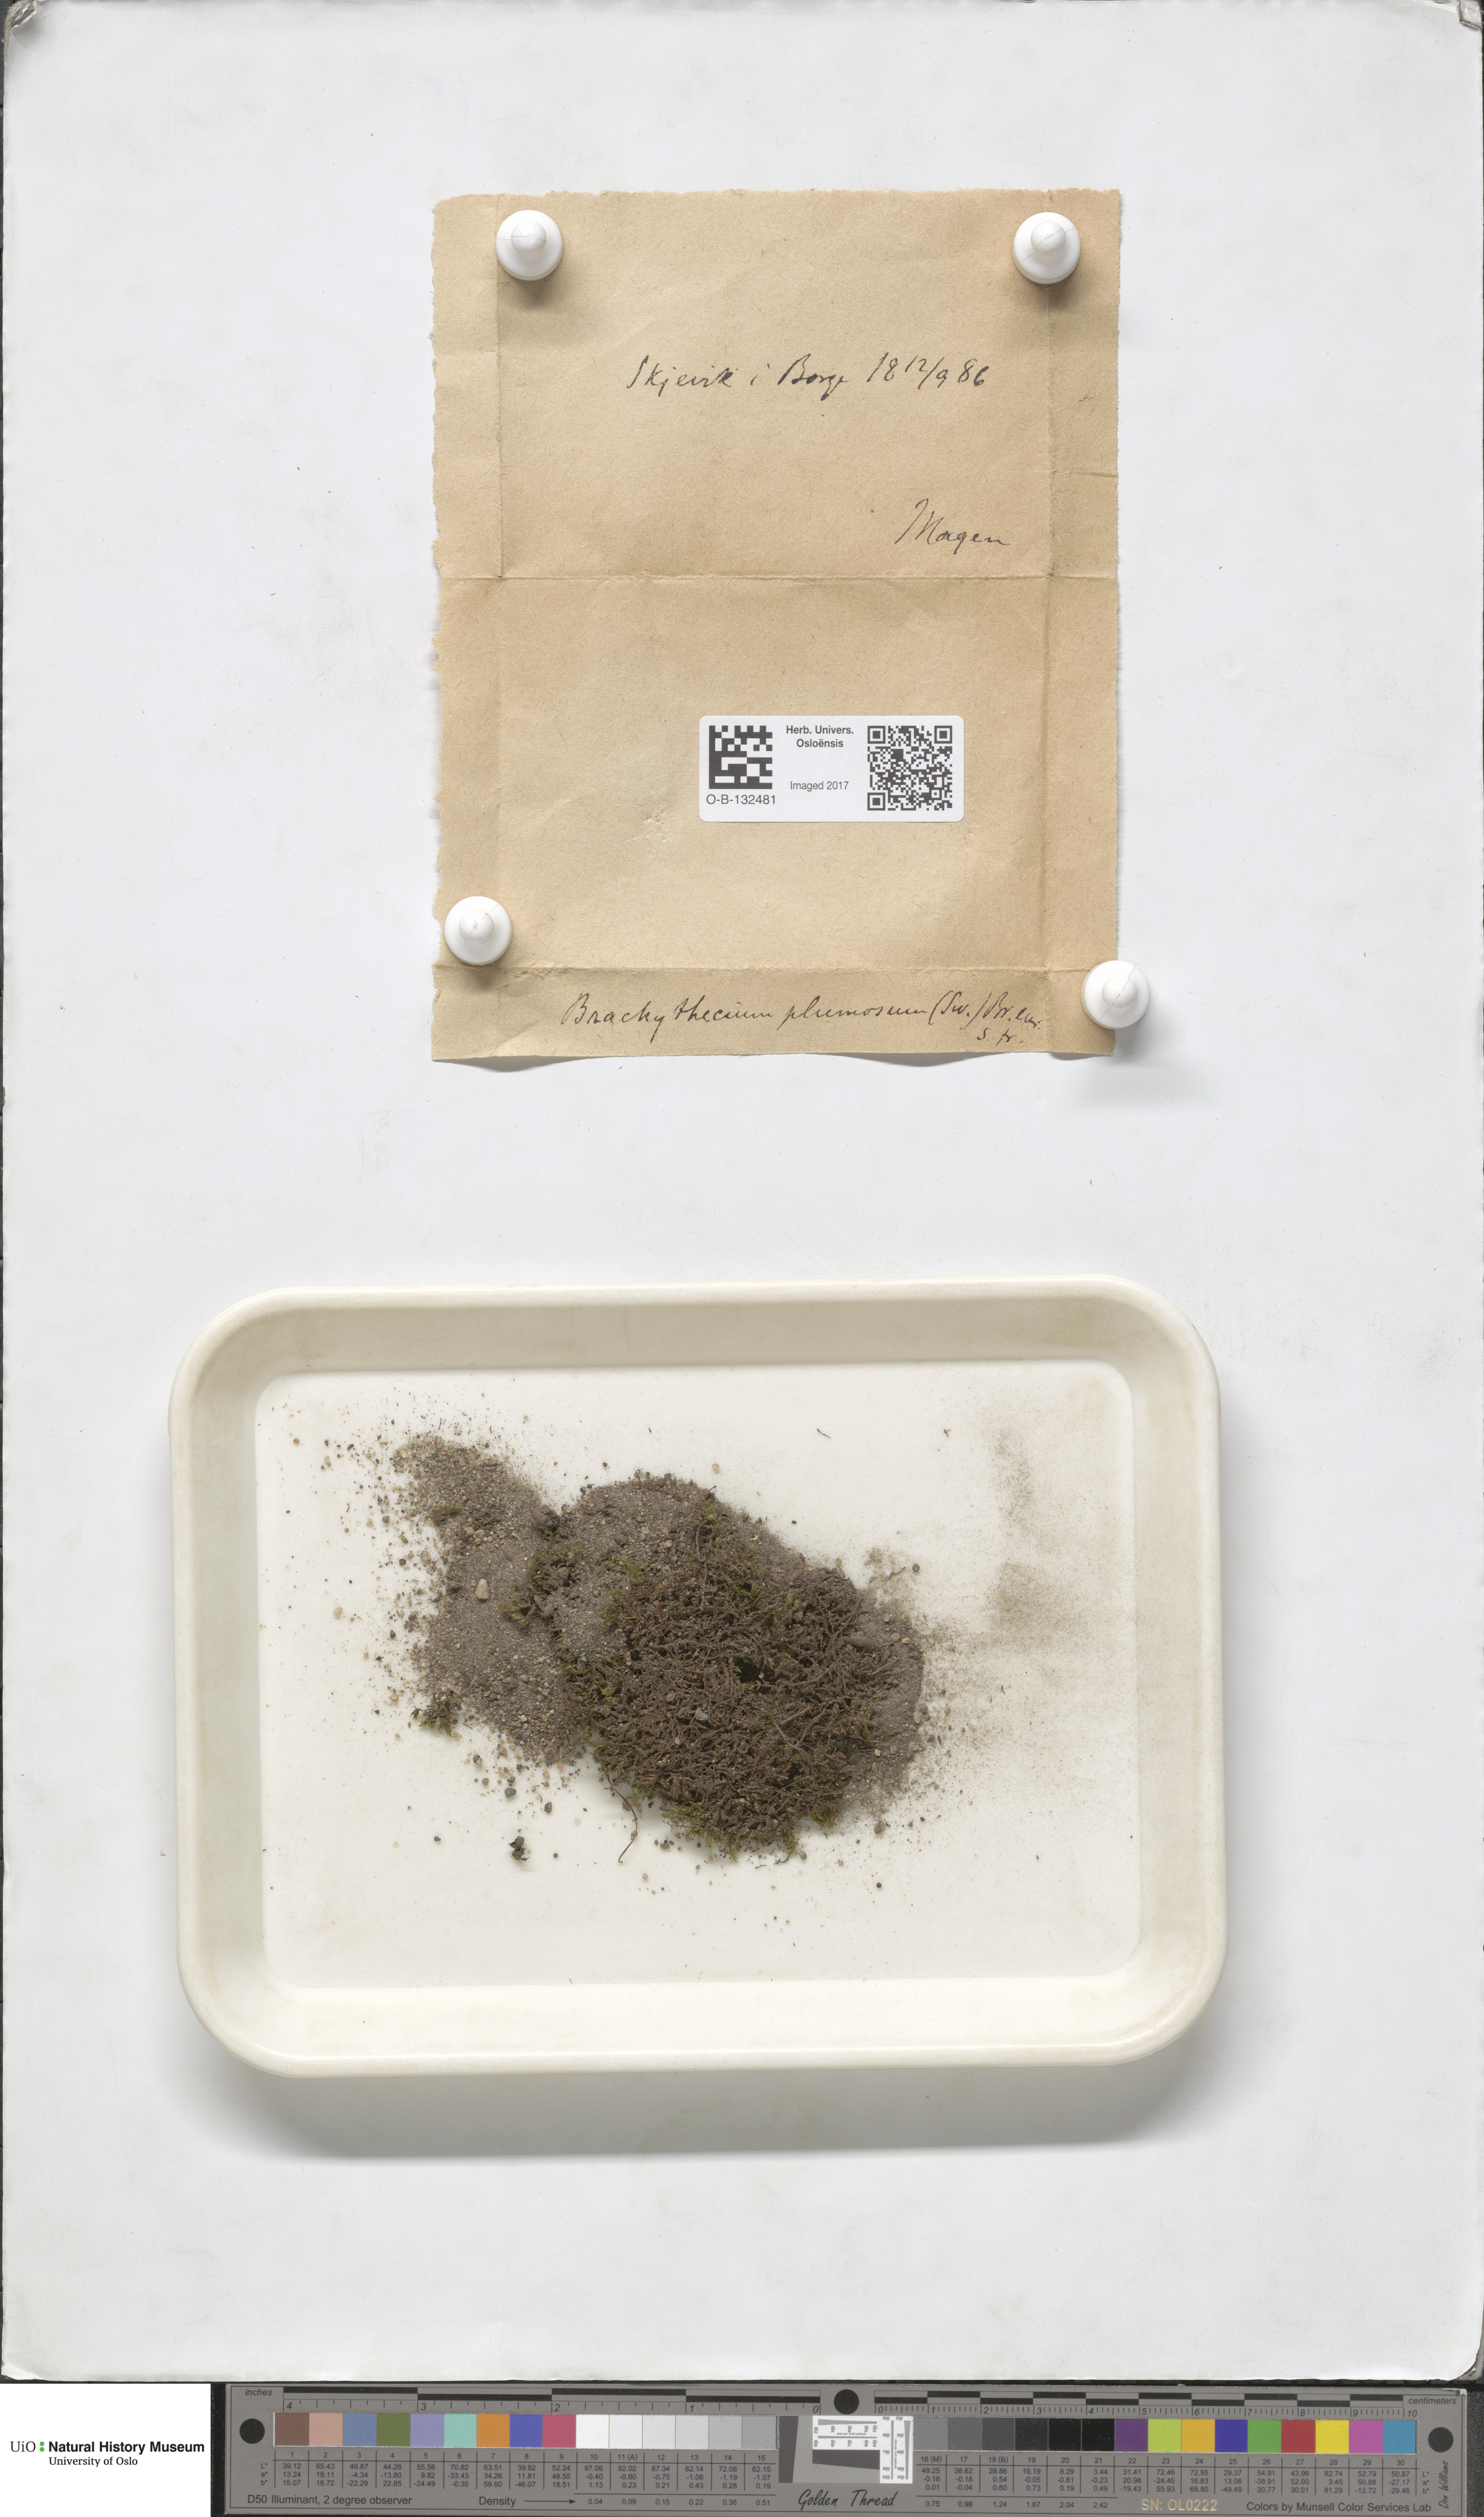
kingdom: Plantae
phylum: Bryophyta
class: Bryopsida
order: Hypnales
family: Brachytheciaceae
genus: Sciuro-hypnum
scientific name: Sciuro-hypnum plumosum
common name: Rusty feather-moss
